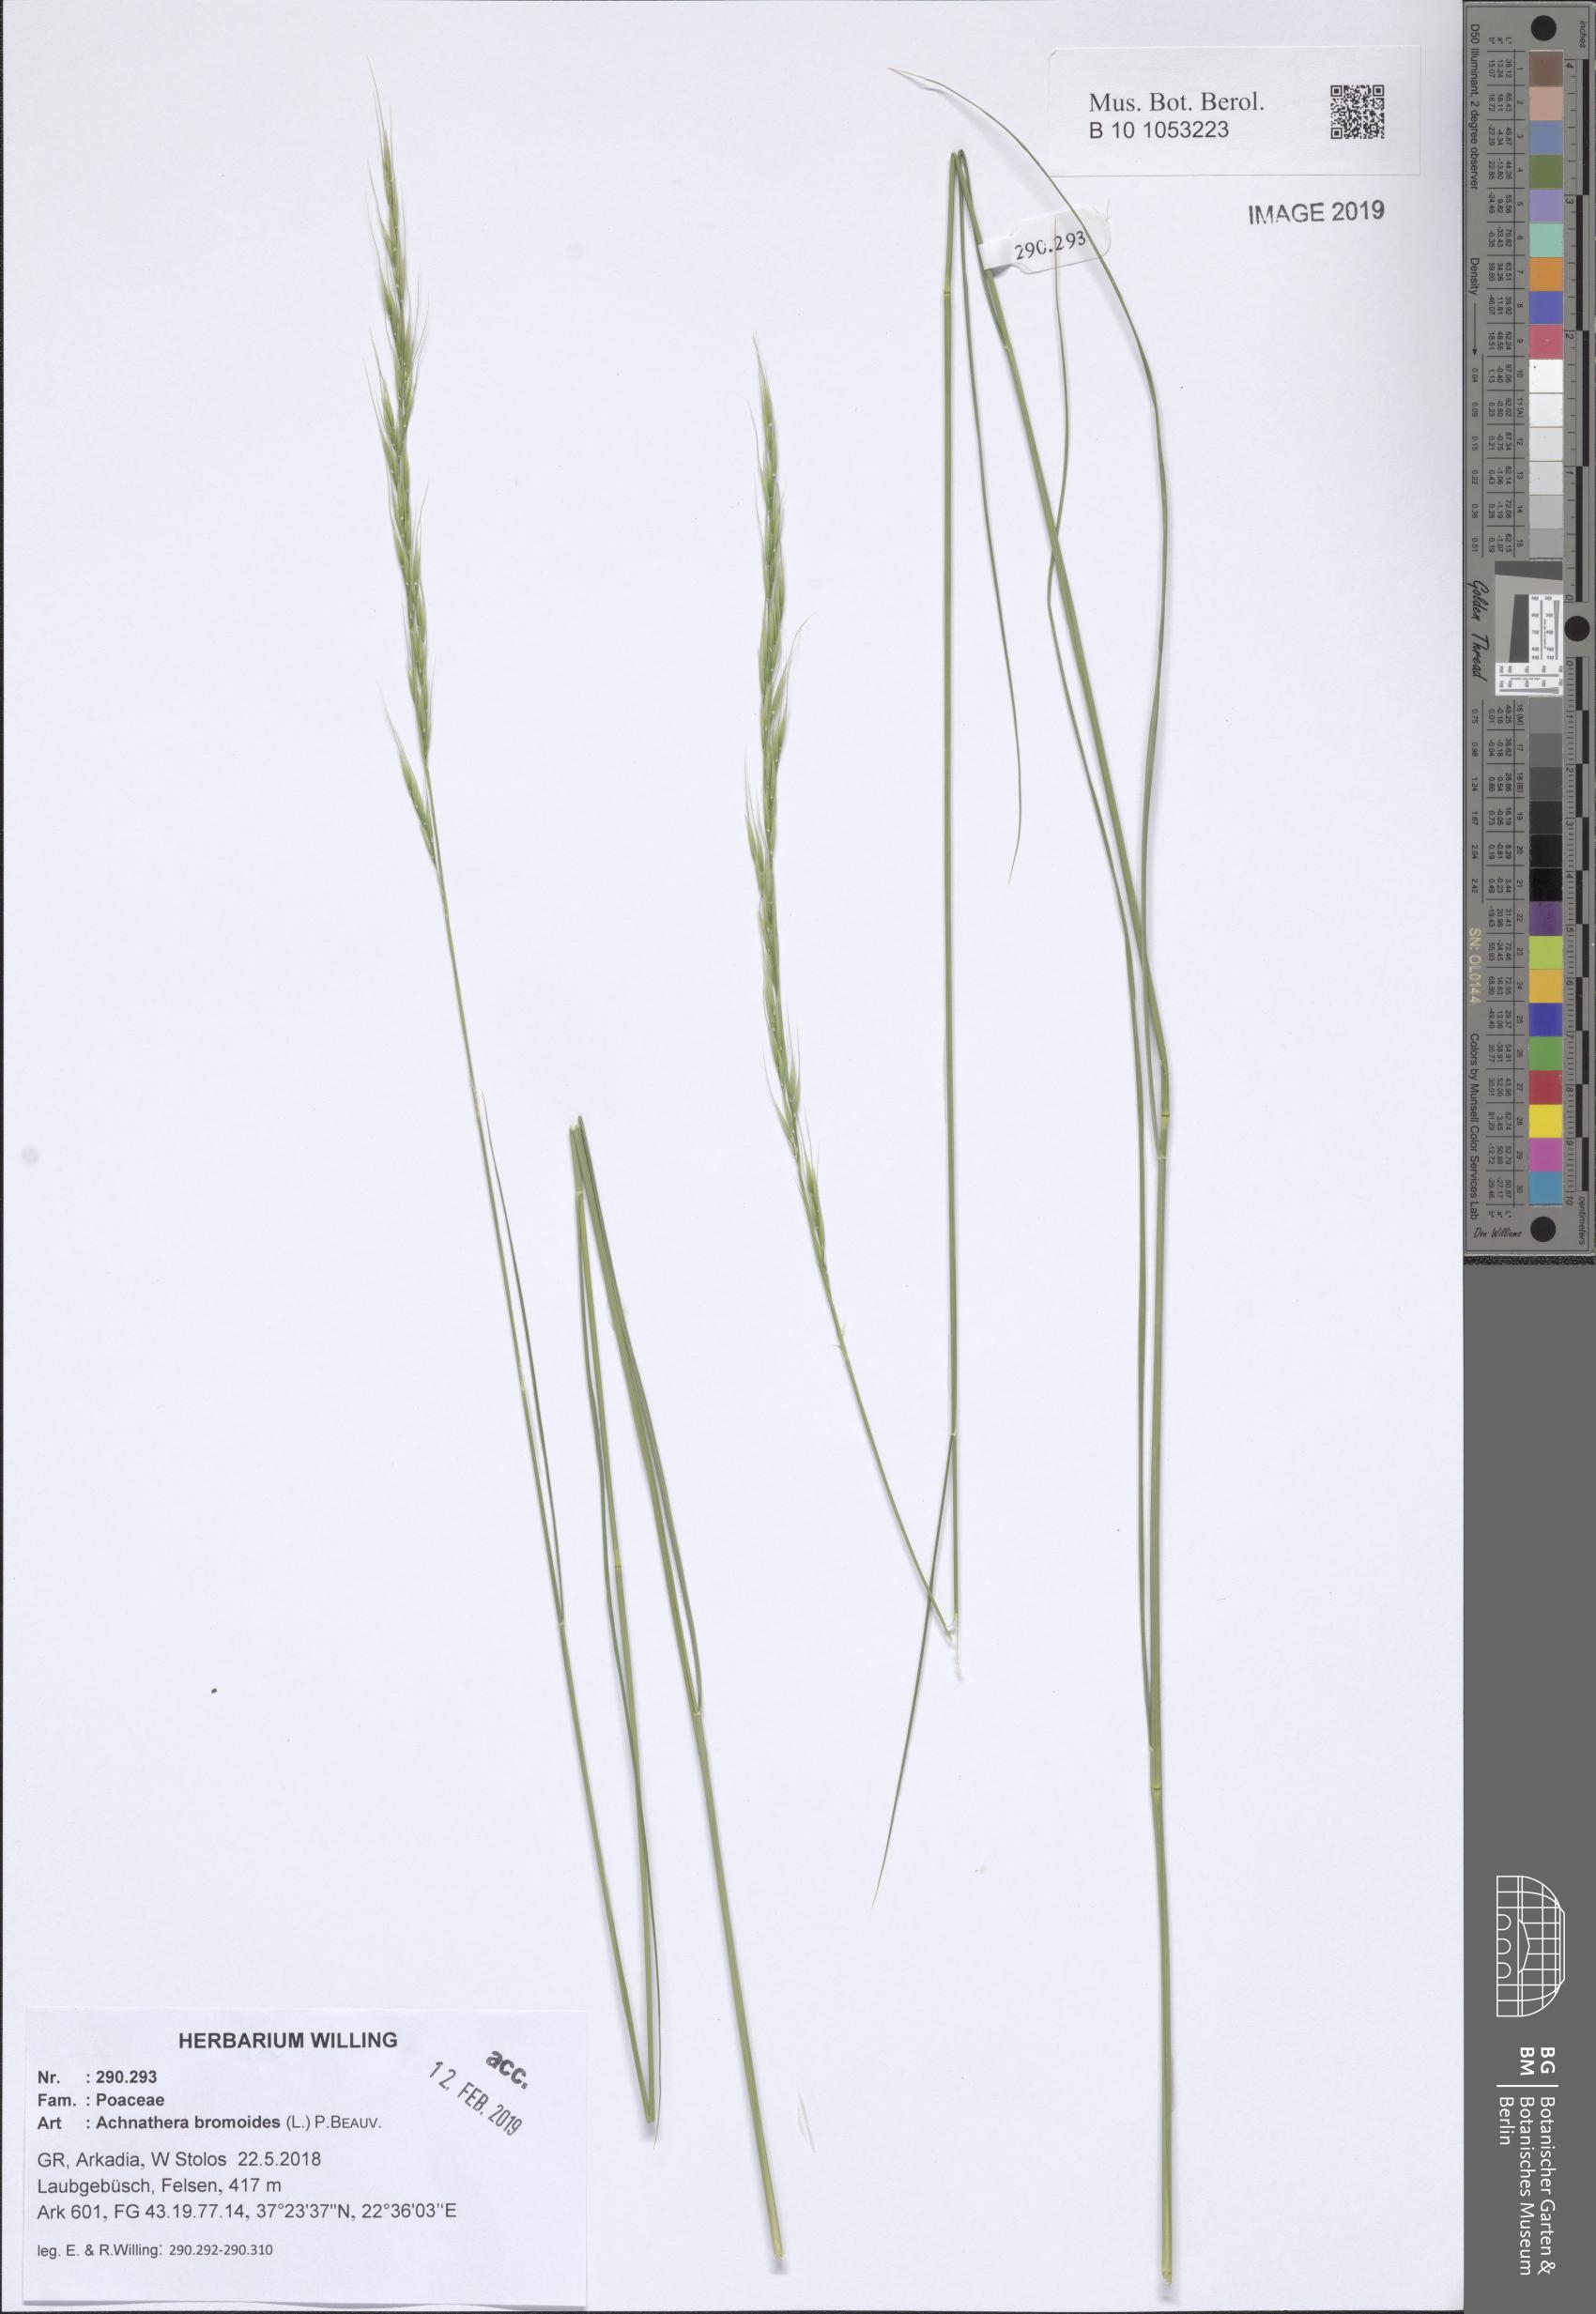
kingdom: Plantae
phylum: Tracheophyta
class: Liliopsida
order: Poales
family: Poaceae
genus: Achnatherum
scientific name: Achnatherum bromoides
